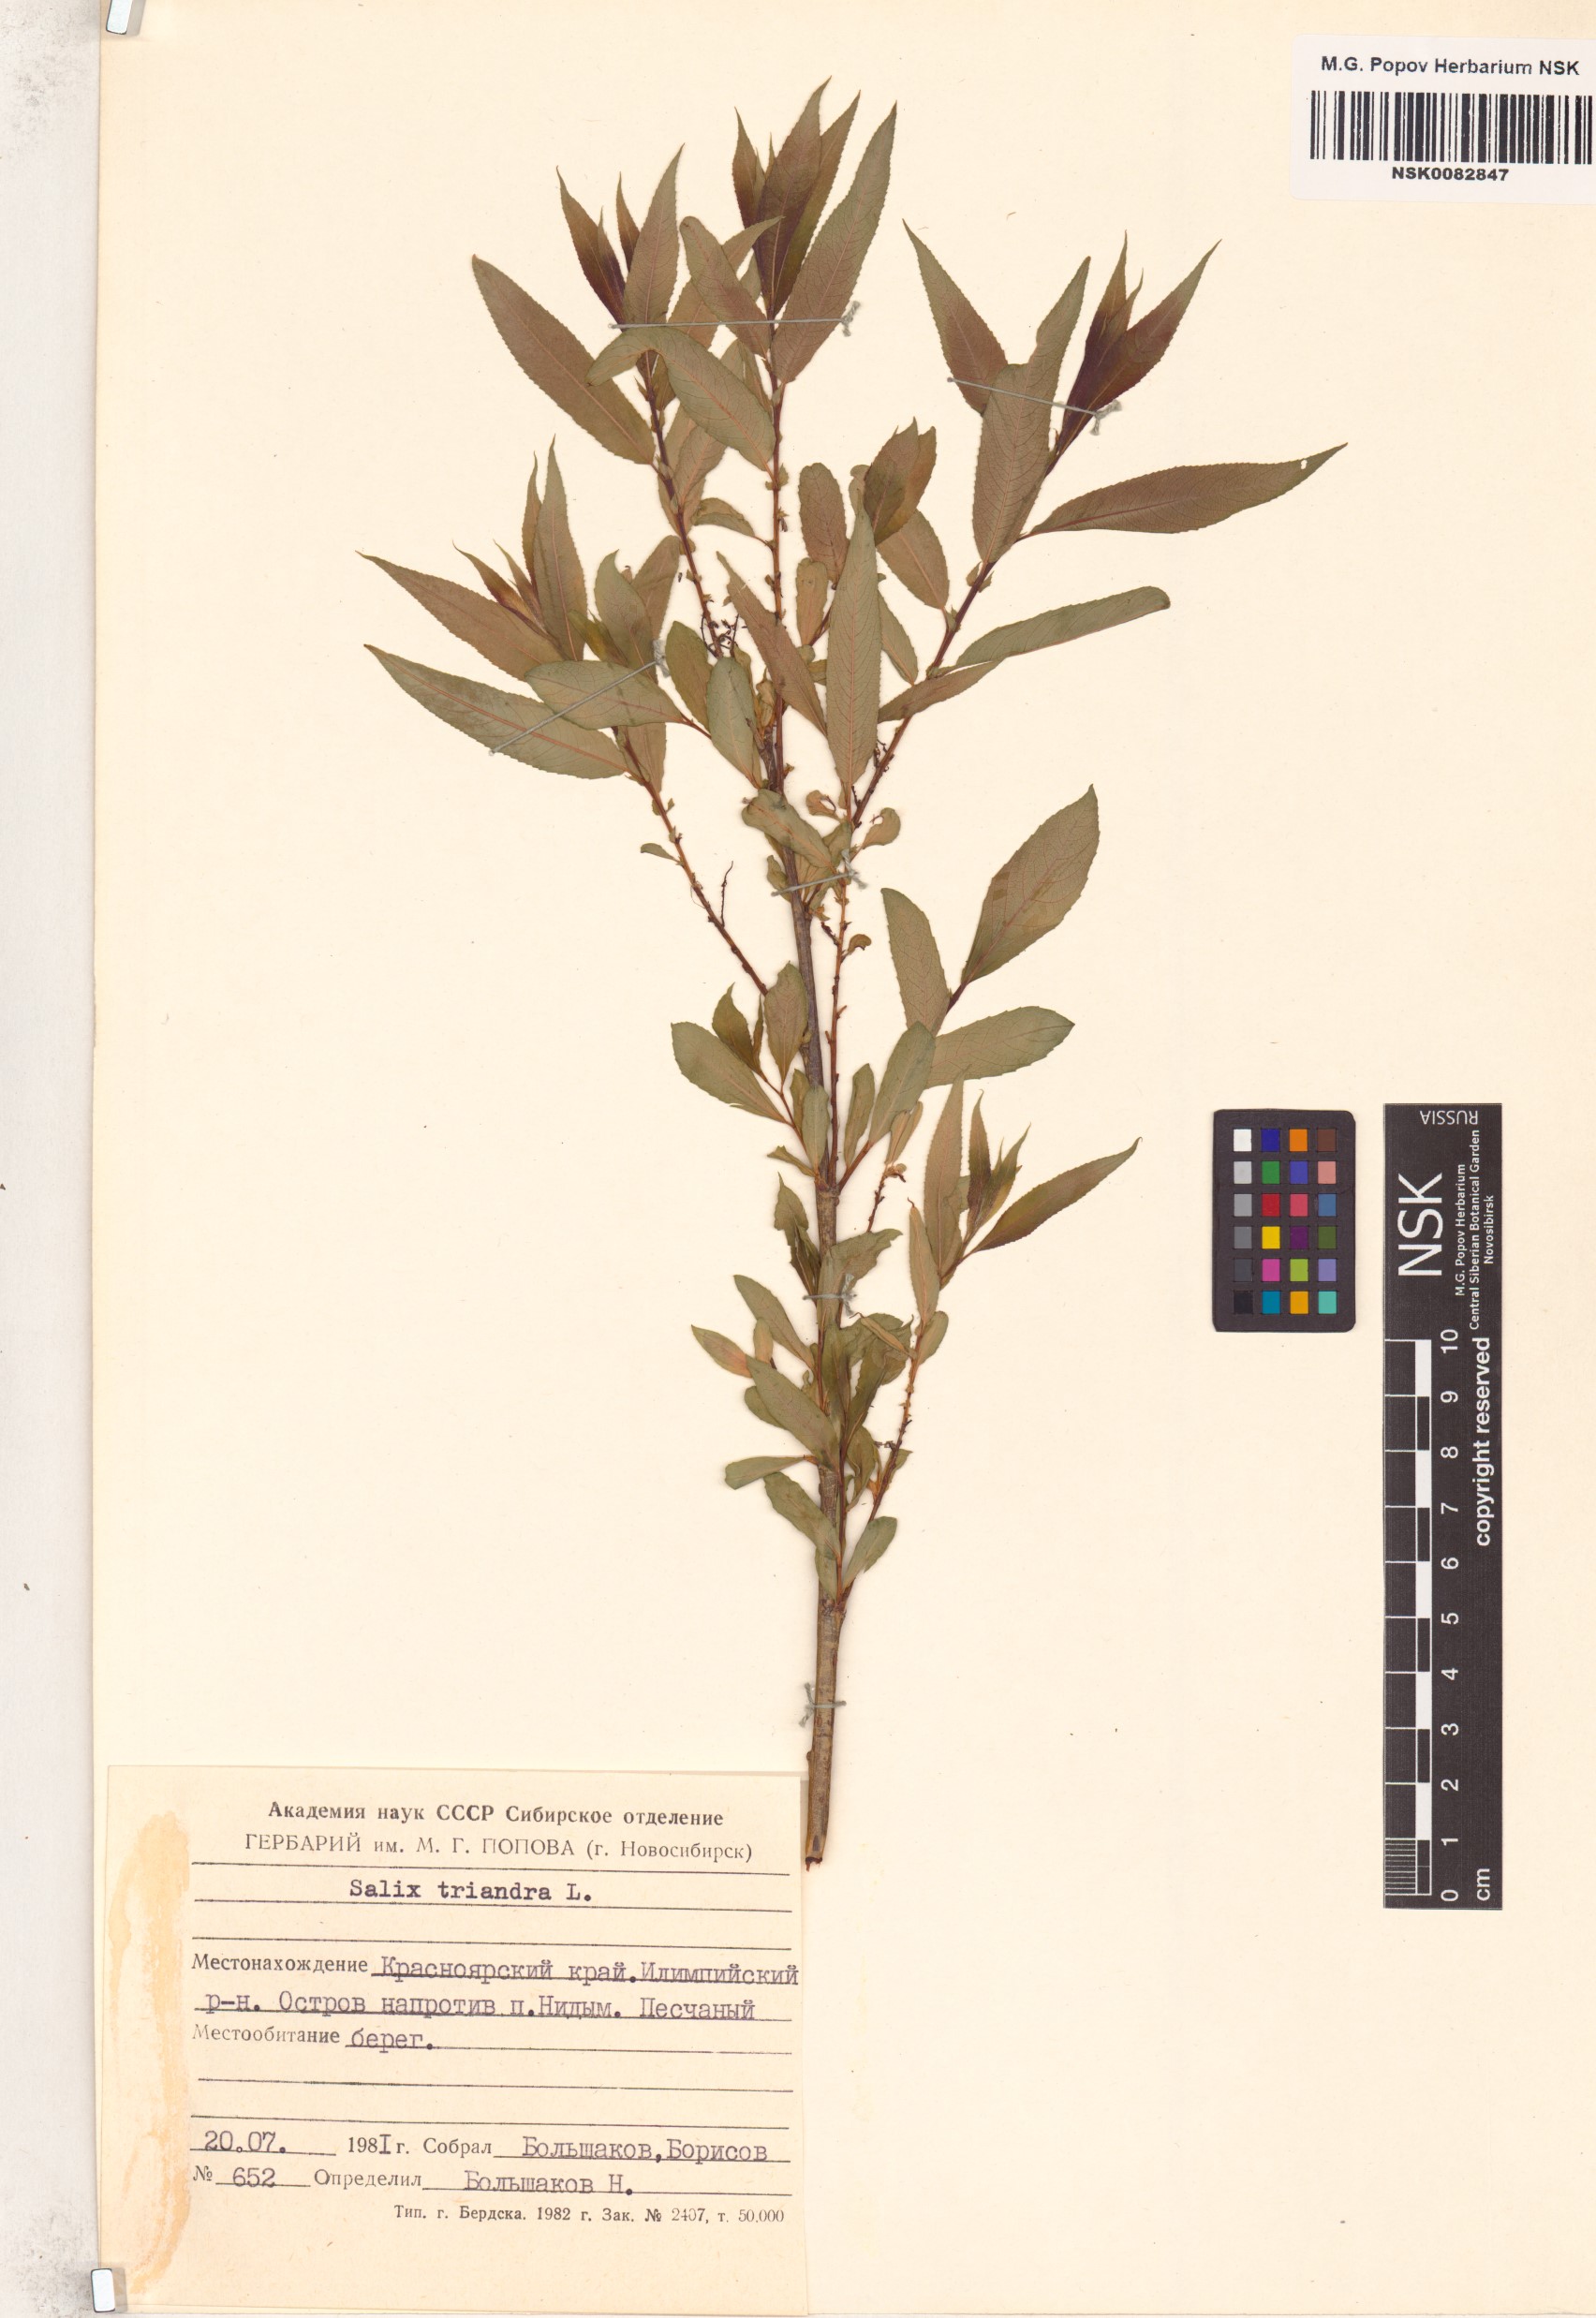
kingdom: Plantae
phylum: Tracheophyta
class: Magnoliopsida
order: Malpighiales
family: Salicaceae
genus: Salix
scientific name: Salix triandra
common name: Almond willow
